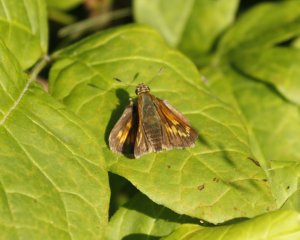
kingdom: Animalia
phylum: Arthropoda
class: Insecta
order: Lepidoptera
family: Hesperiidae
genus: Polites
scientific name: Polites
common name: Long Dash Skipper
